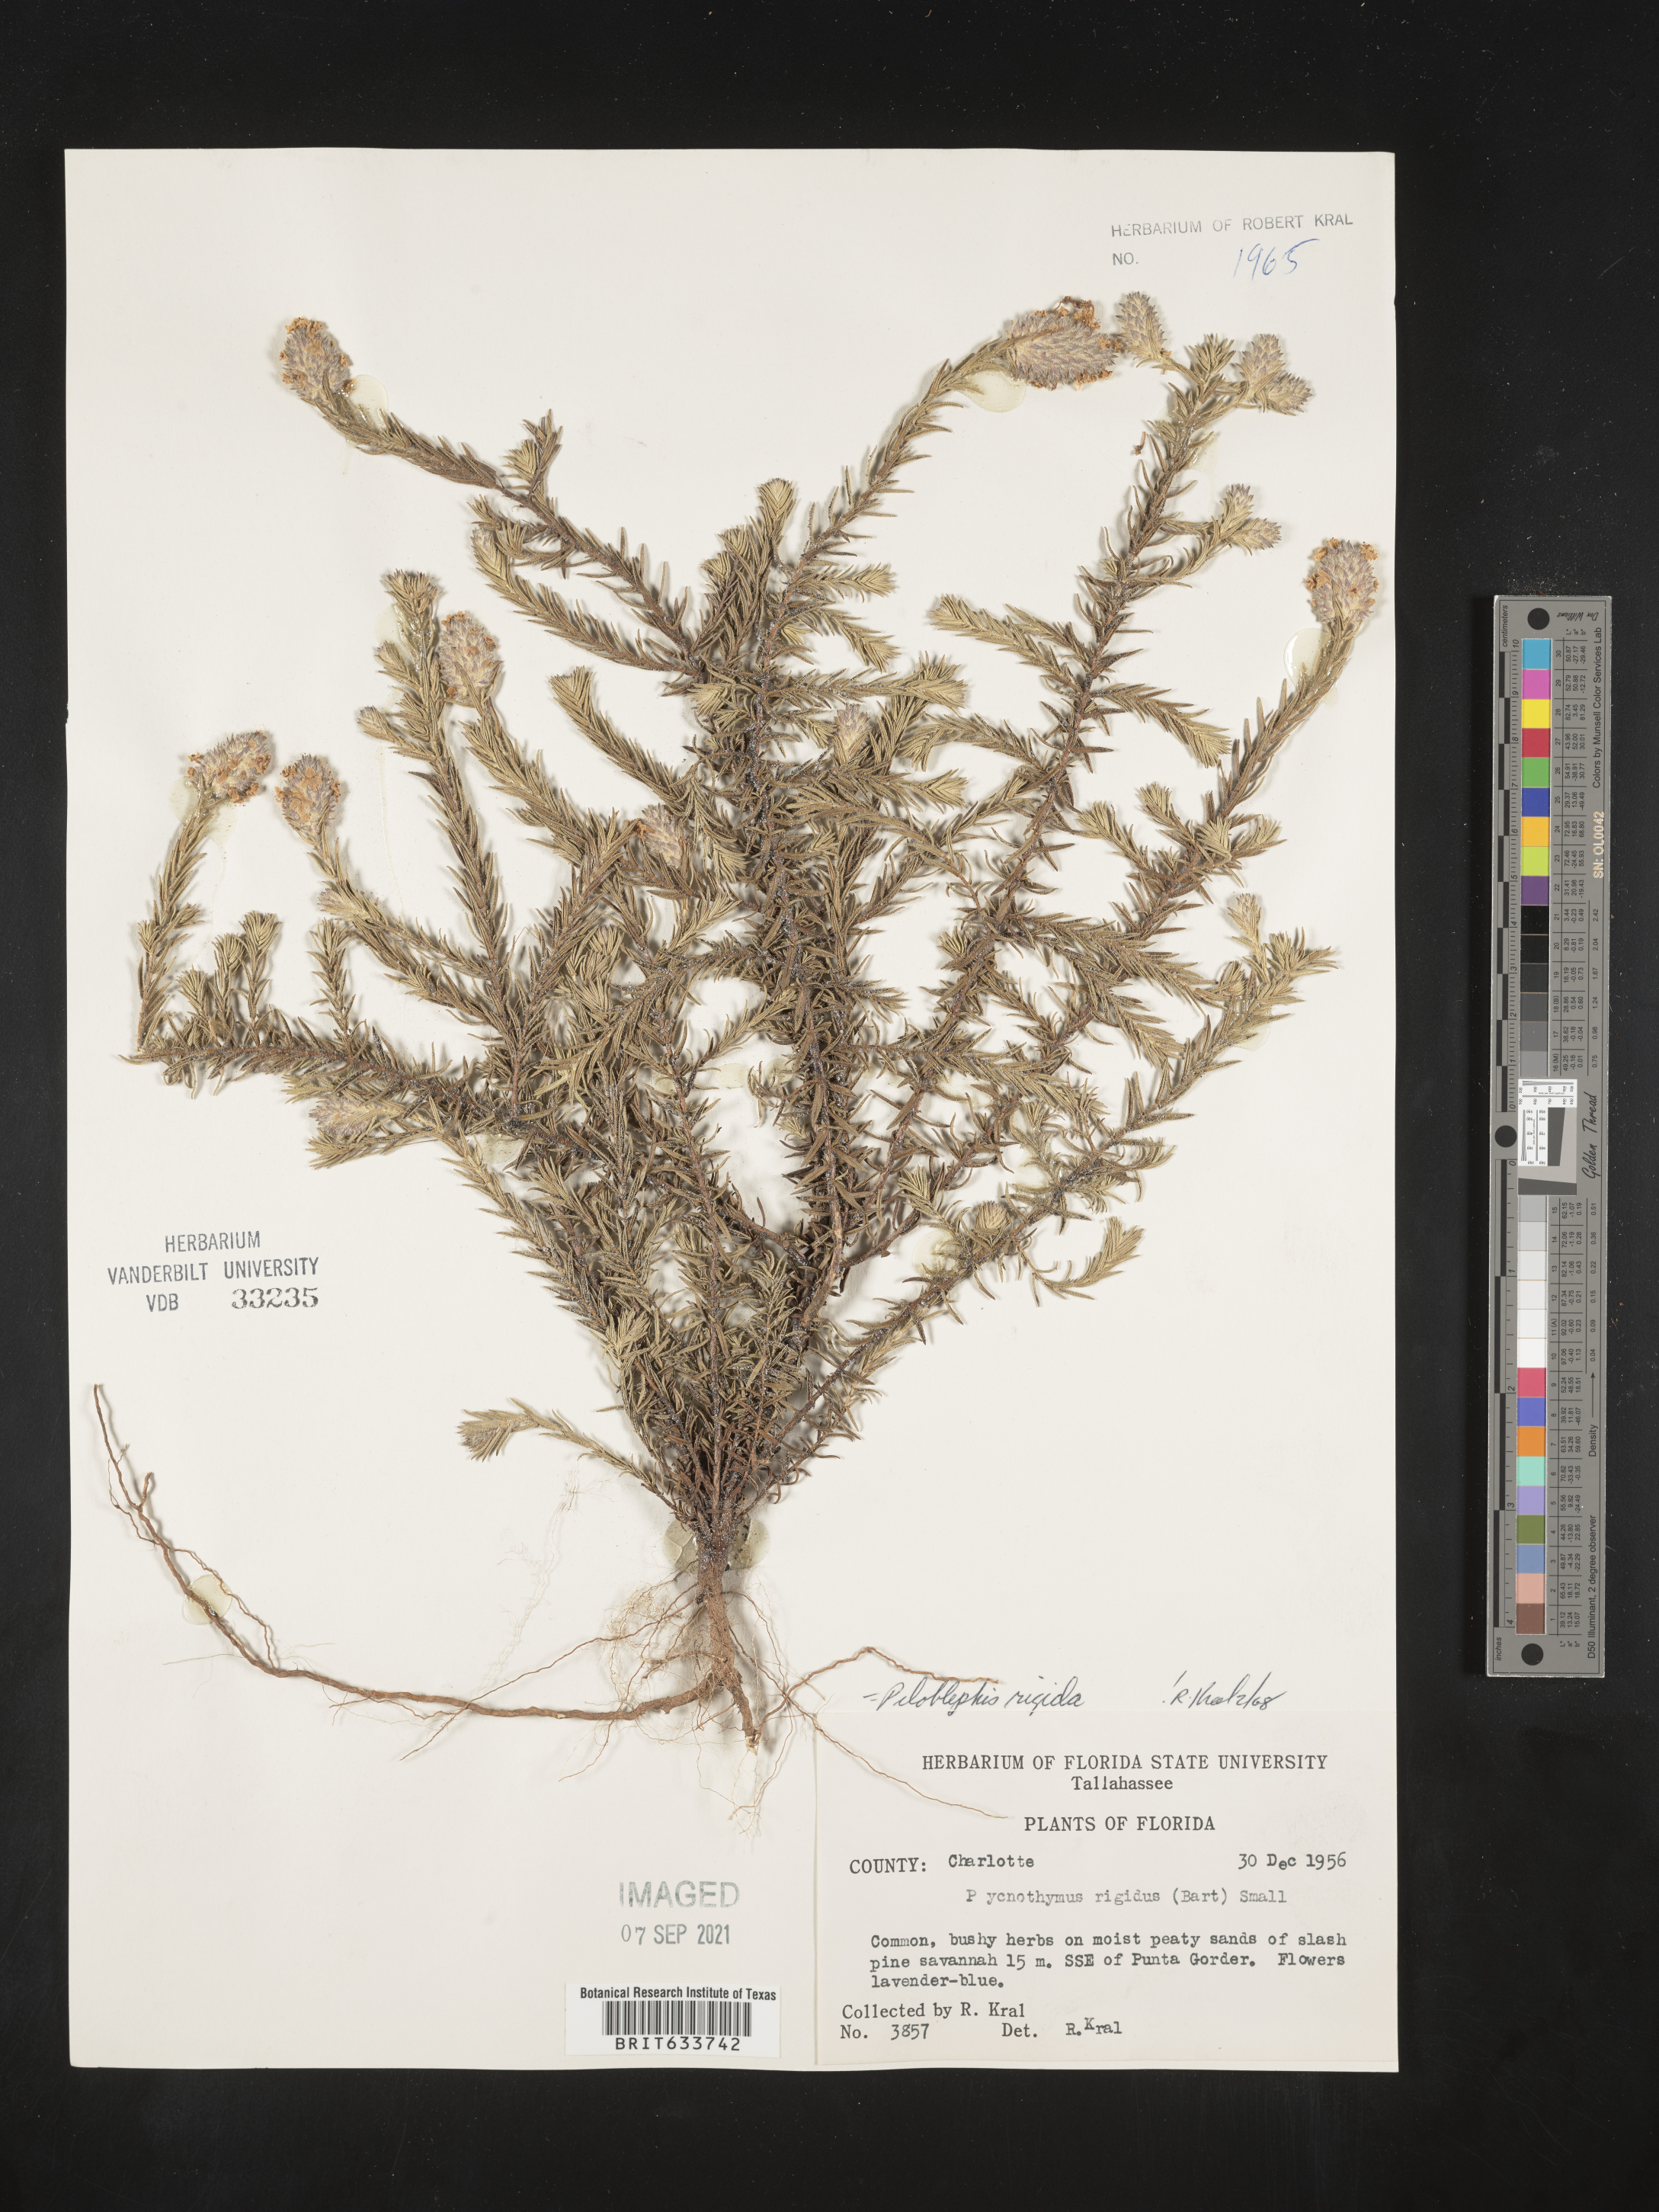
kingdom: Plantae
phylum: Tracheophyta
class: Magnoliopsida
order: Lamiales
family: Lamiaceae
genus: Piloblephis
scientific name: Piloblephis rigida
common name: Wild pennyroyal
